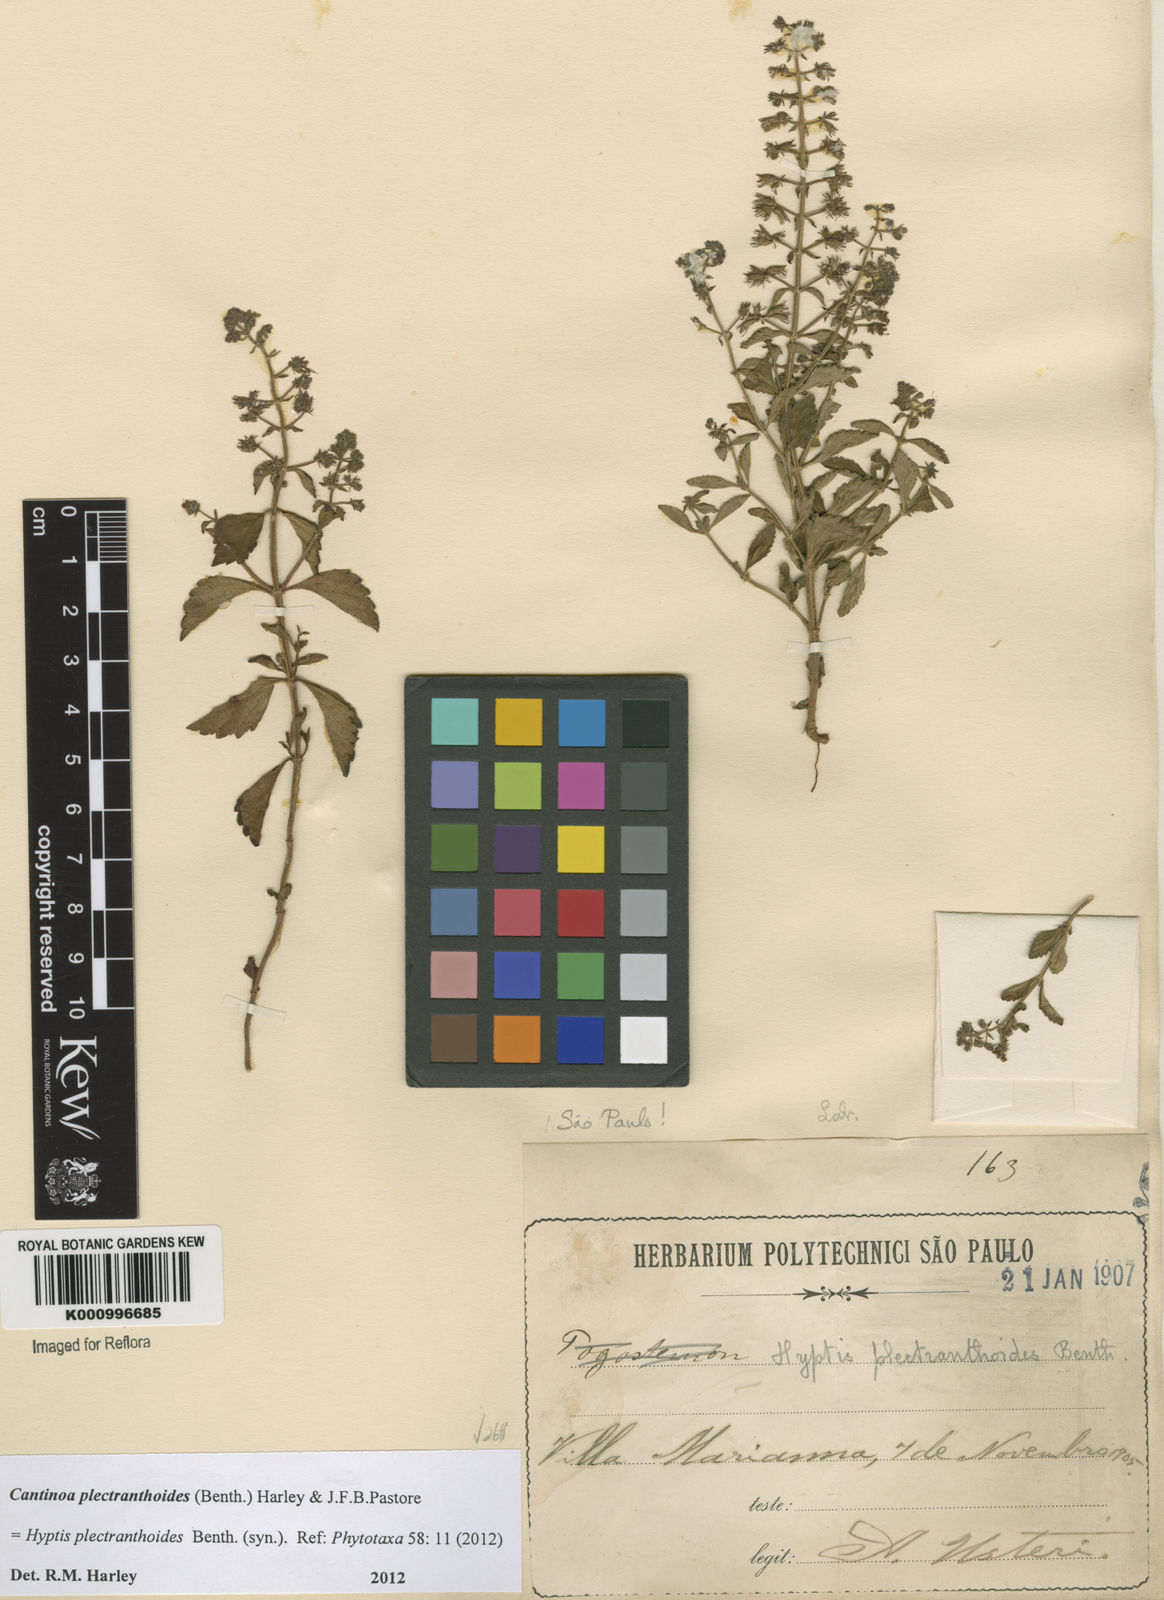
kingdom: Plantae
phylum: Tracheophyta
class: Magnoliopsida
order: Lamiales
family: Lamiaceae
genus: Cantinoa
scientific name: Cantinoa plectranthoides
